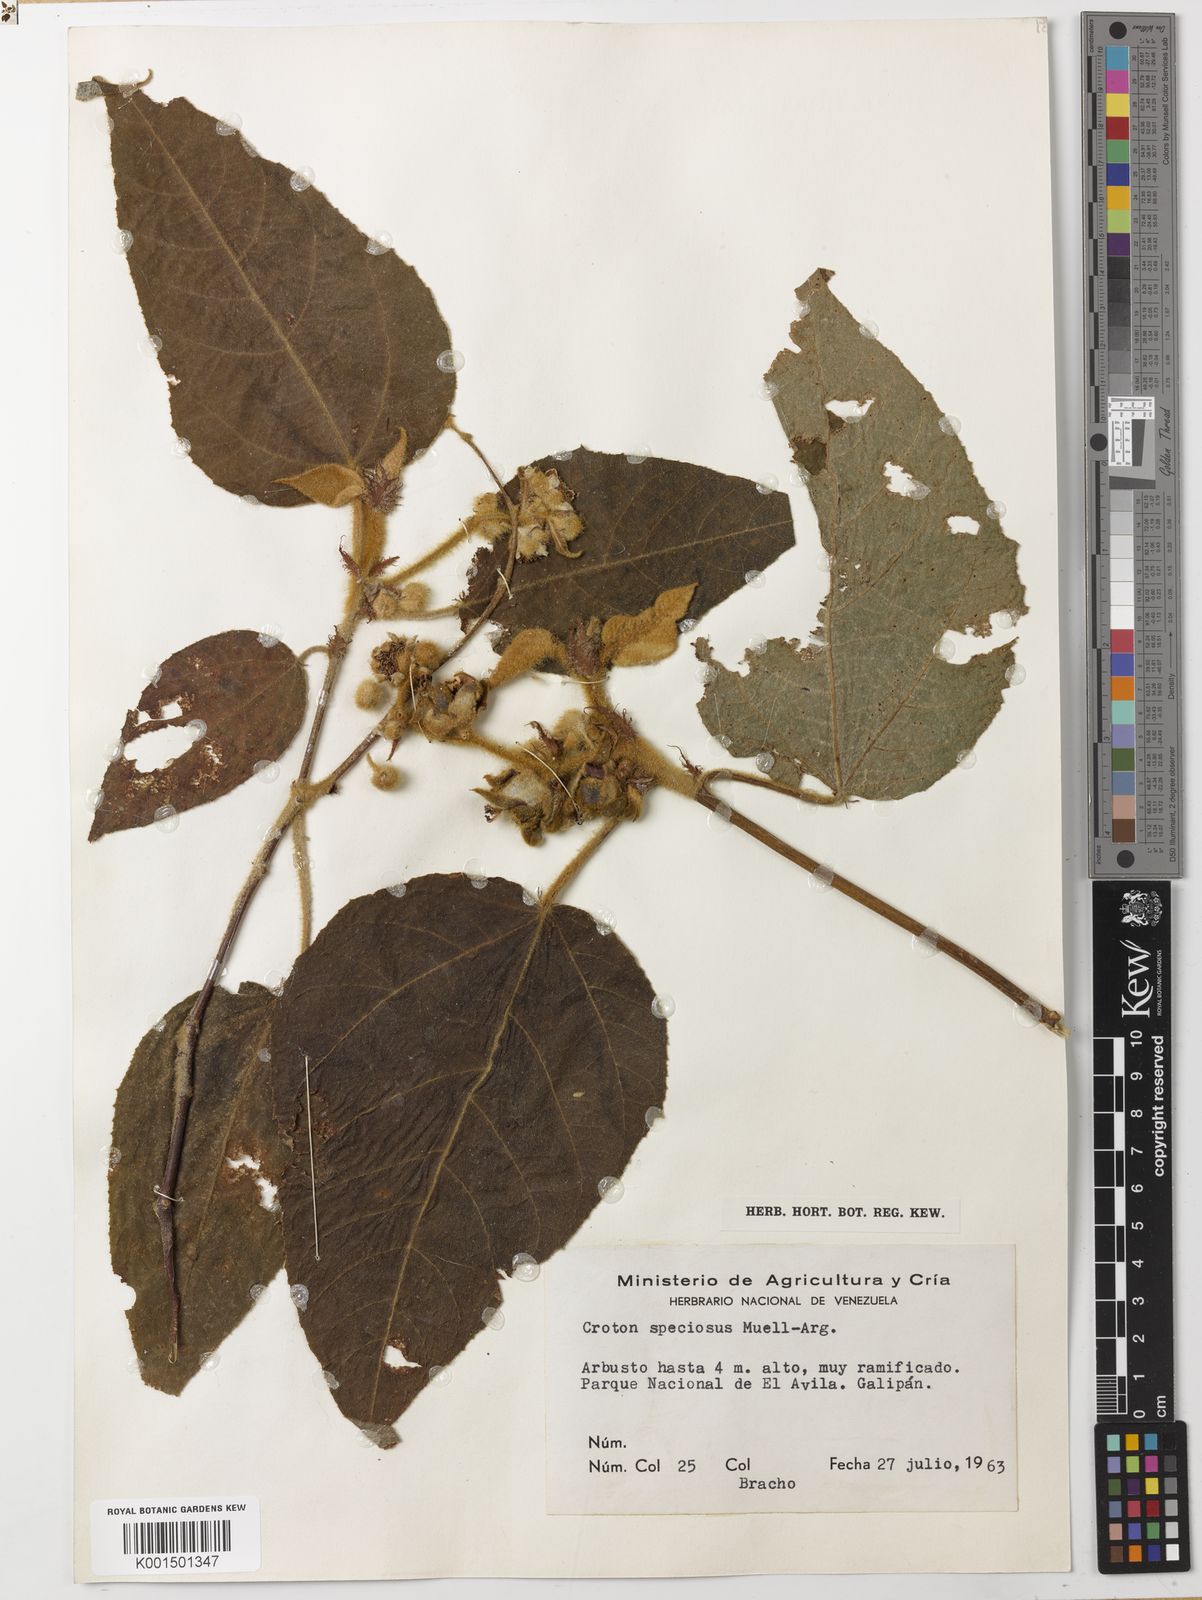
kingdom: Plantae
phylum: Tracheophyta
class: Magnoliopsida
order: Malpighiales
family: Euphorbiaceae
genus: Croton
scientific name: Croton speciosus
